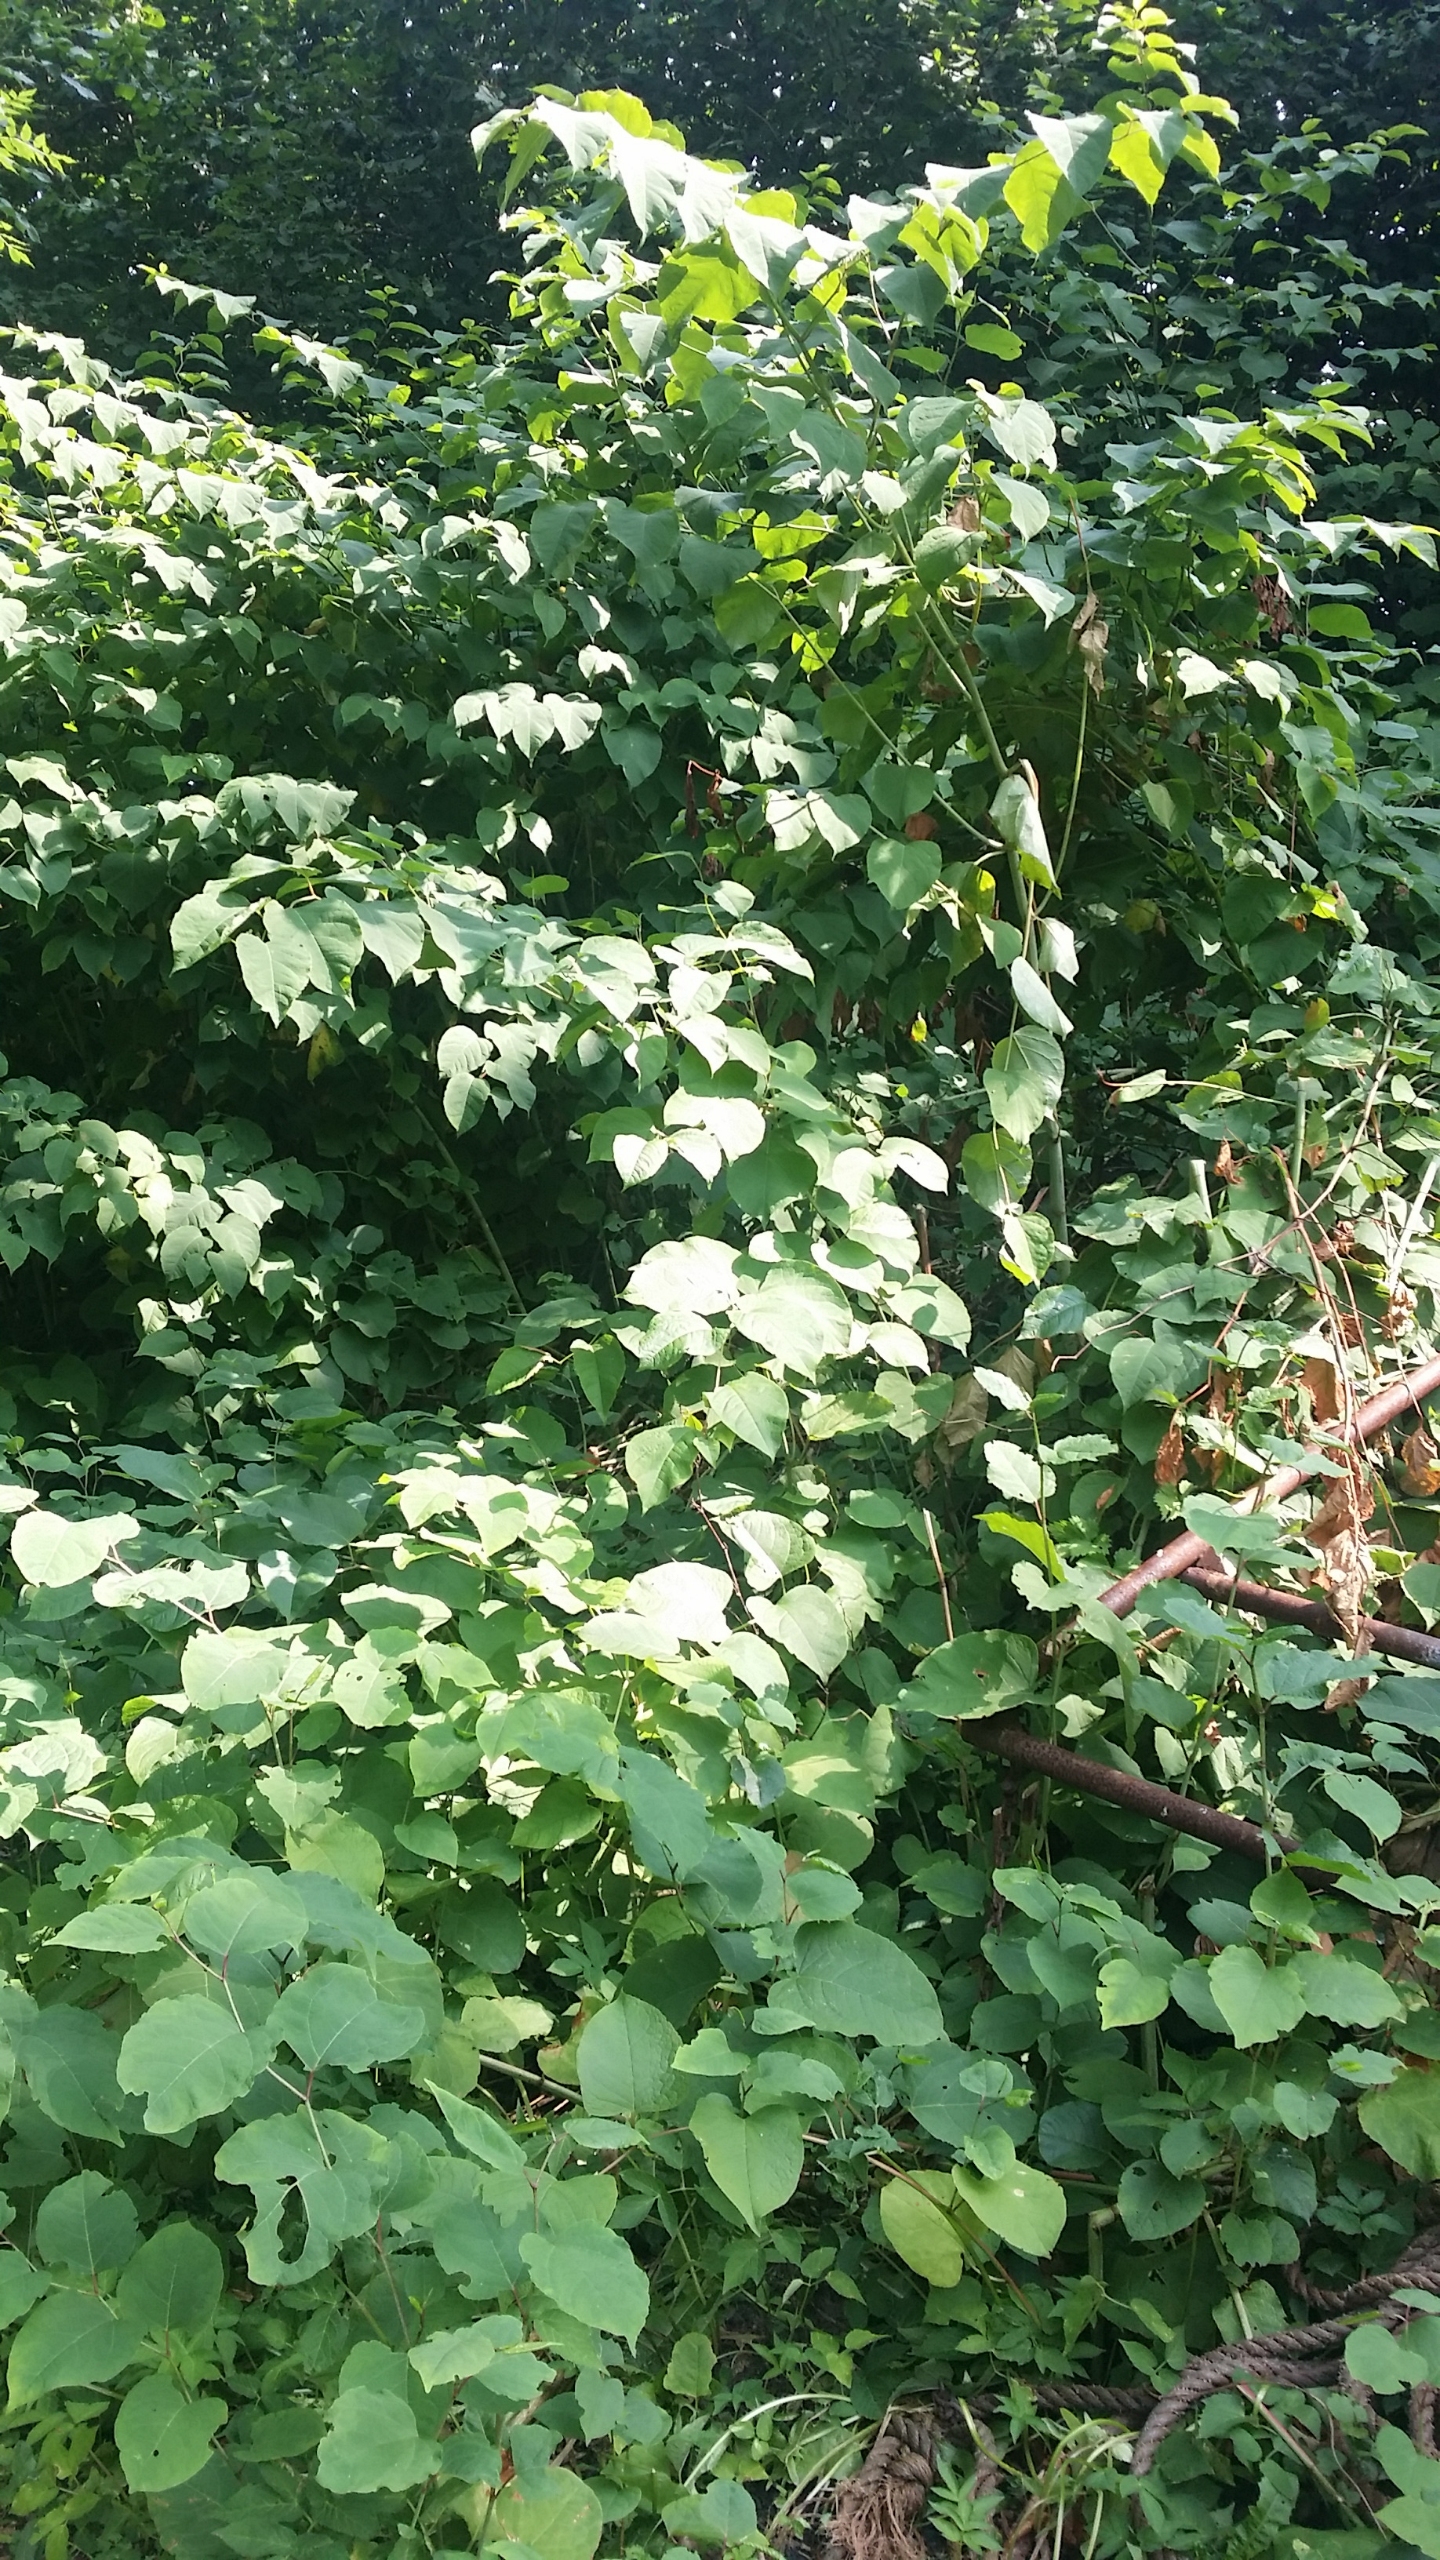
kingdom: Plantae
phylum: Tracheophyta
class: Magnoliopsida
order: Caryophyllales
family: Polygonaceae
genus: Reynoutria
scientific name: Reynoutria sachalinensis
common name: Kæmpe-pileurt
